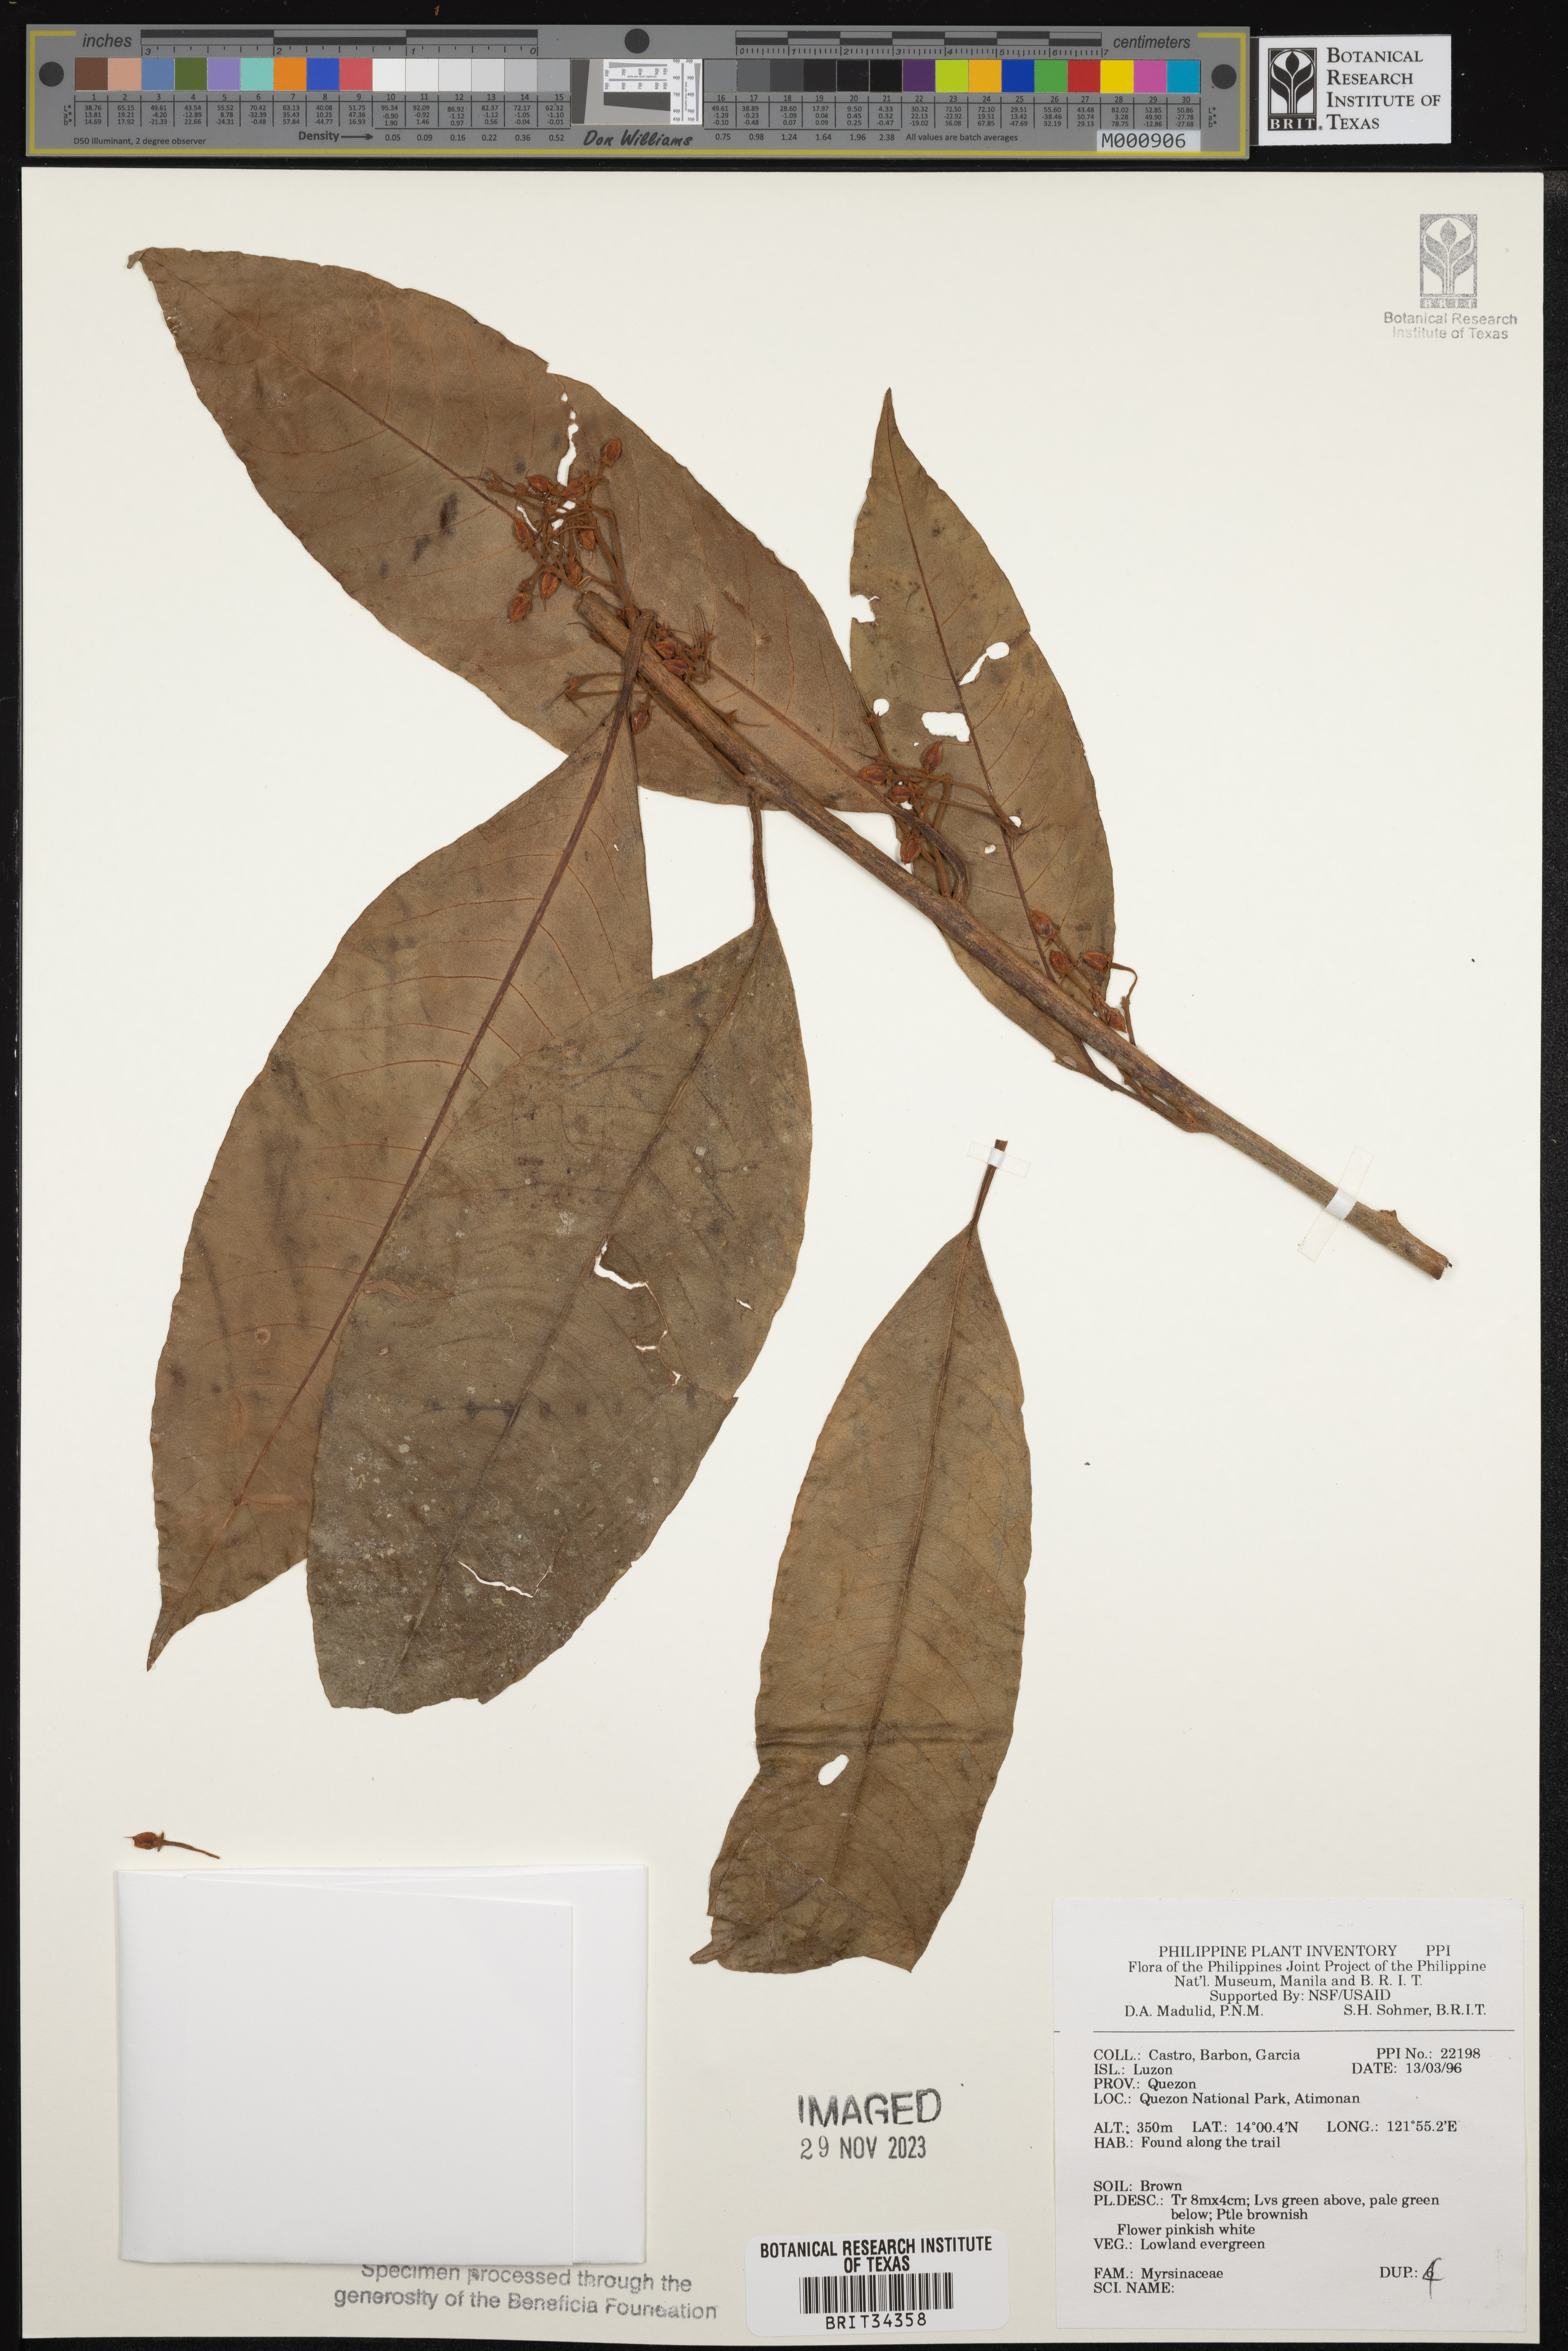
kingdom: Plantae
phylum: Tracheophyta
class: Magnoliopsida
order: Ericales
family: Primulaceae
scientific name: Primulaceae
